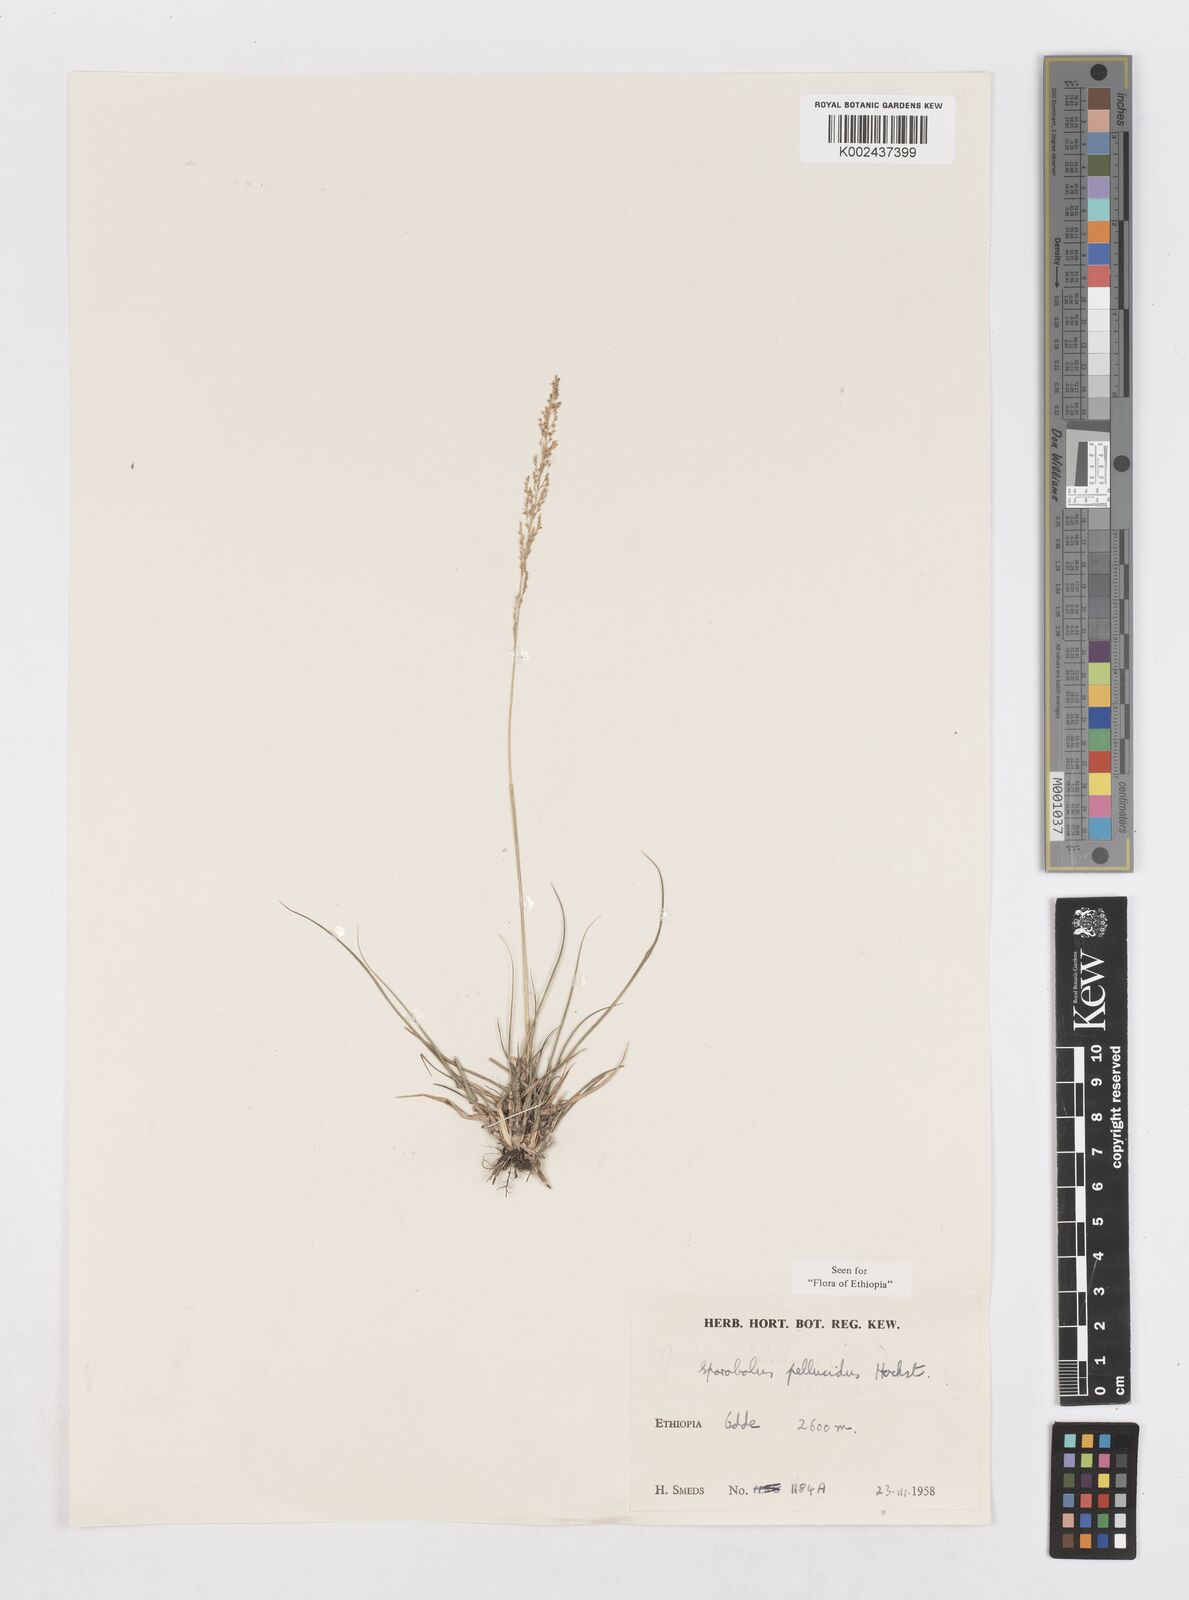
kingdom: Plantae
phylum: Tracheophyta
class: Liliopsida
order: Poales
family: Poaceae
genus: Sporobolus
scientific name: Sporobolus pellucidus
